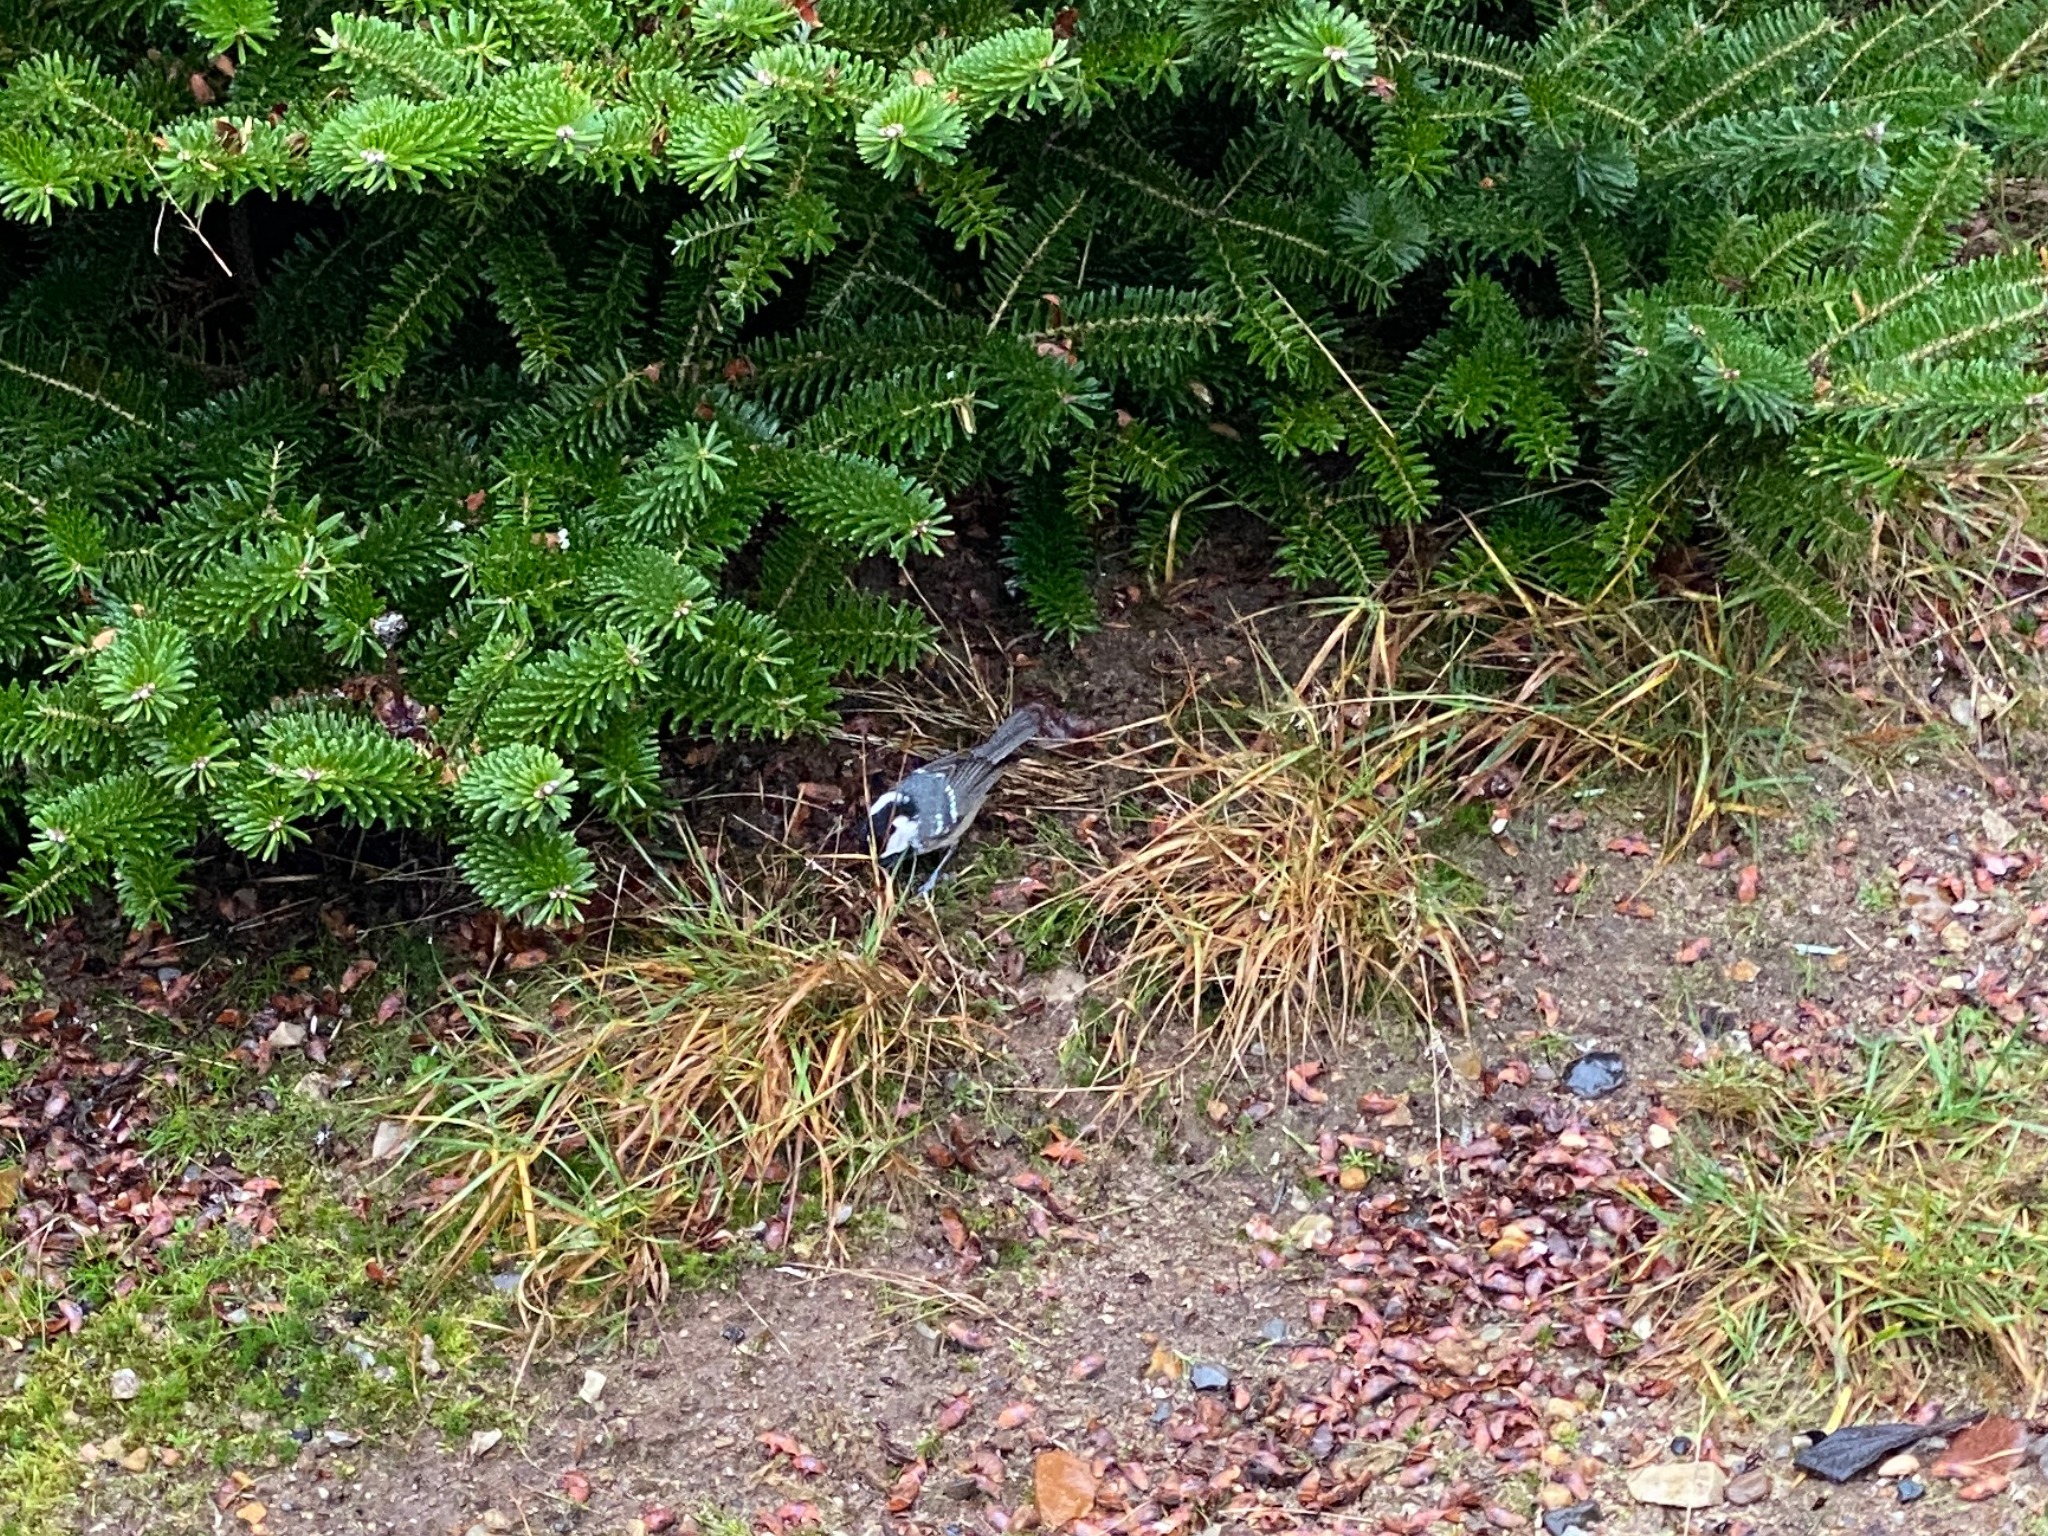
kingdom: Animalia
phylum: Chordata
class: Aves
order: Passeriformes
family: Paridae
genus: Periparus
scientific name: Periparus ater
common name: Sortmejse
